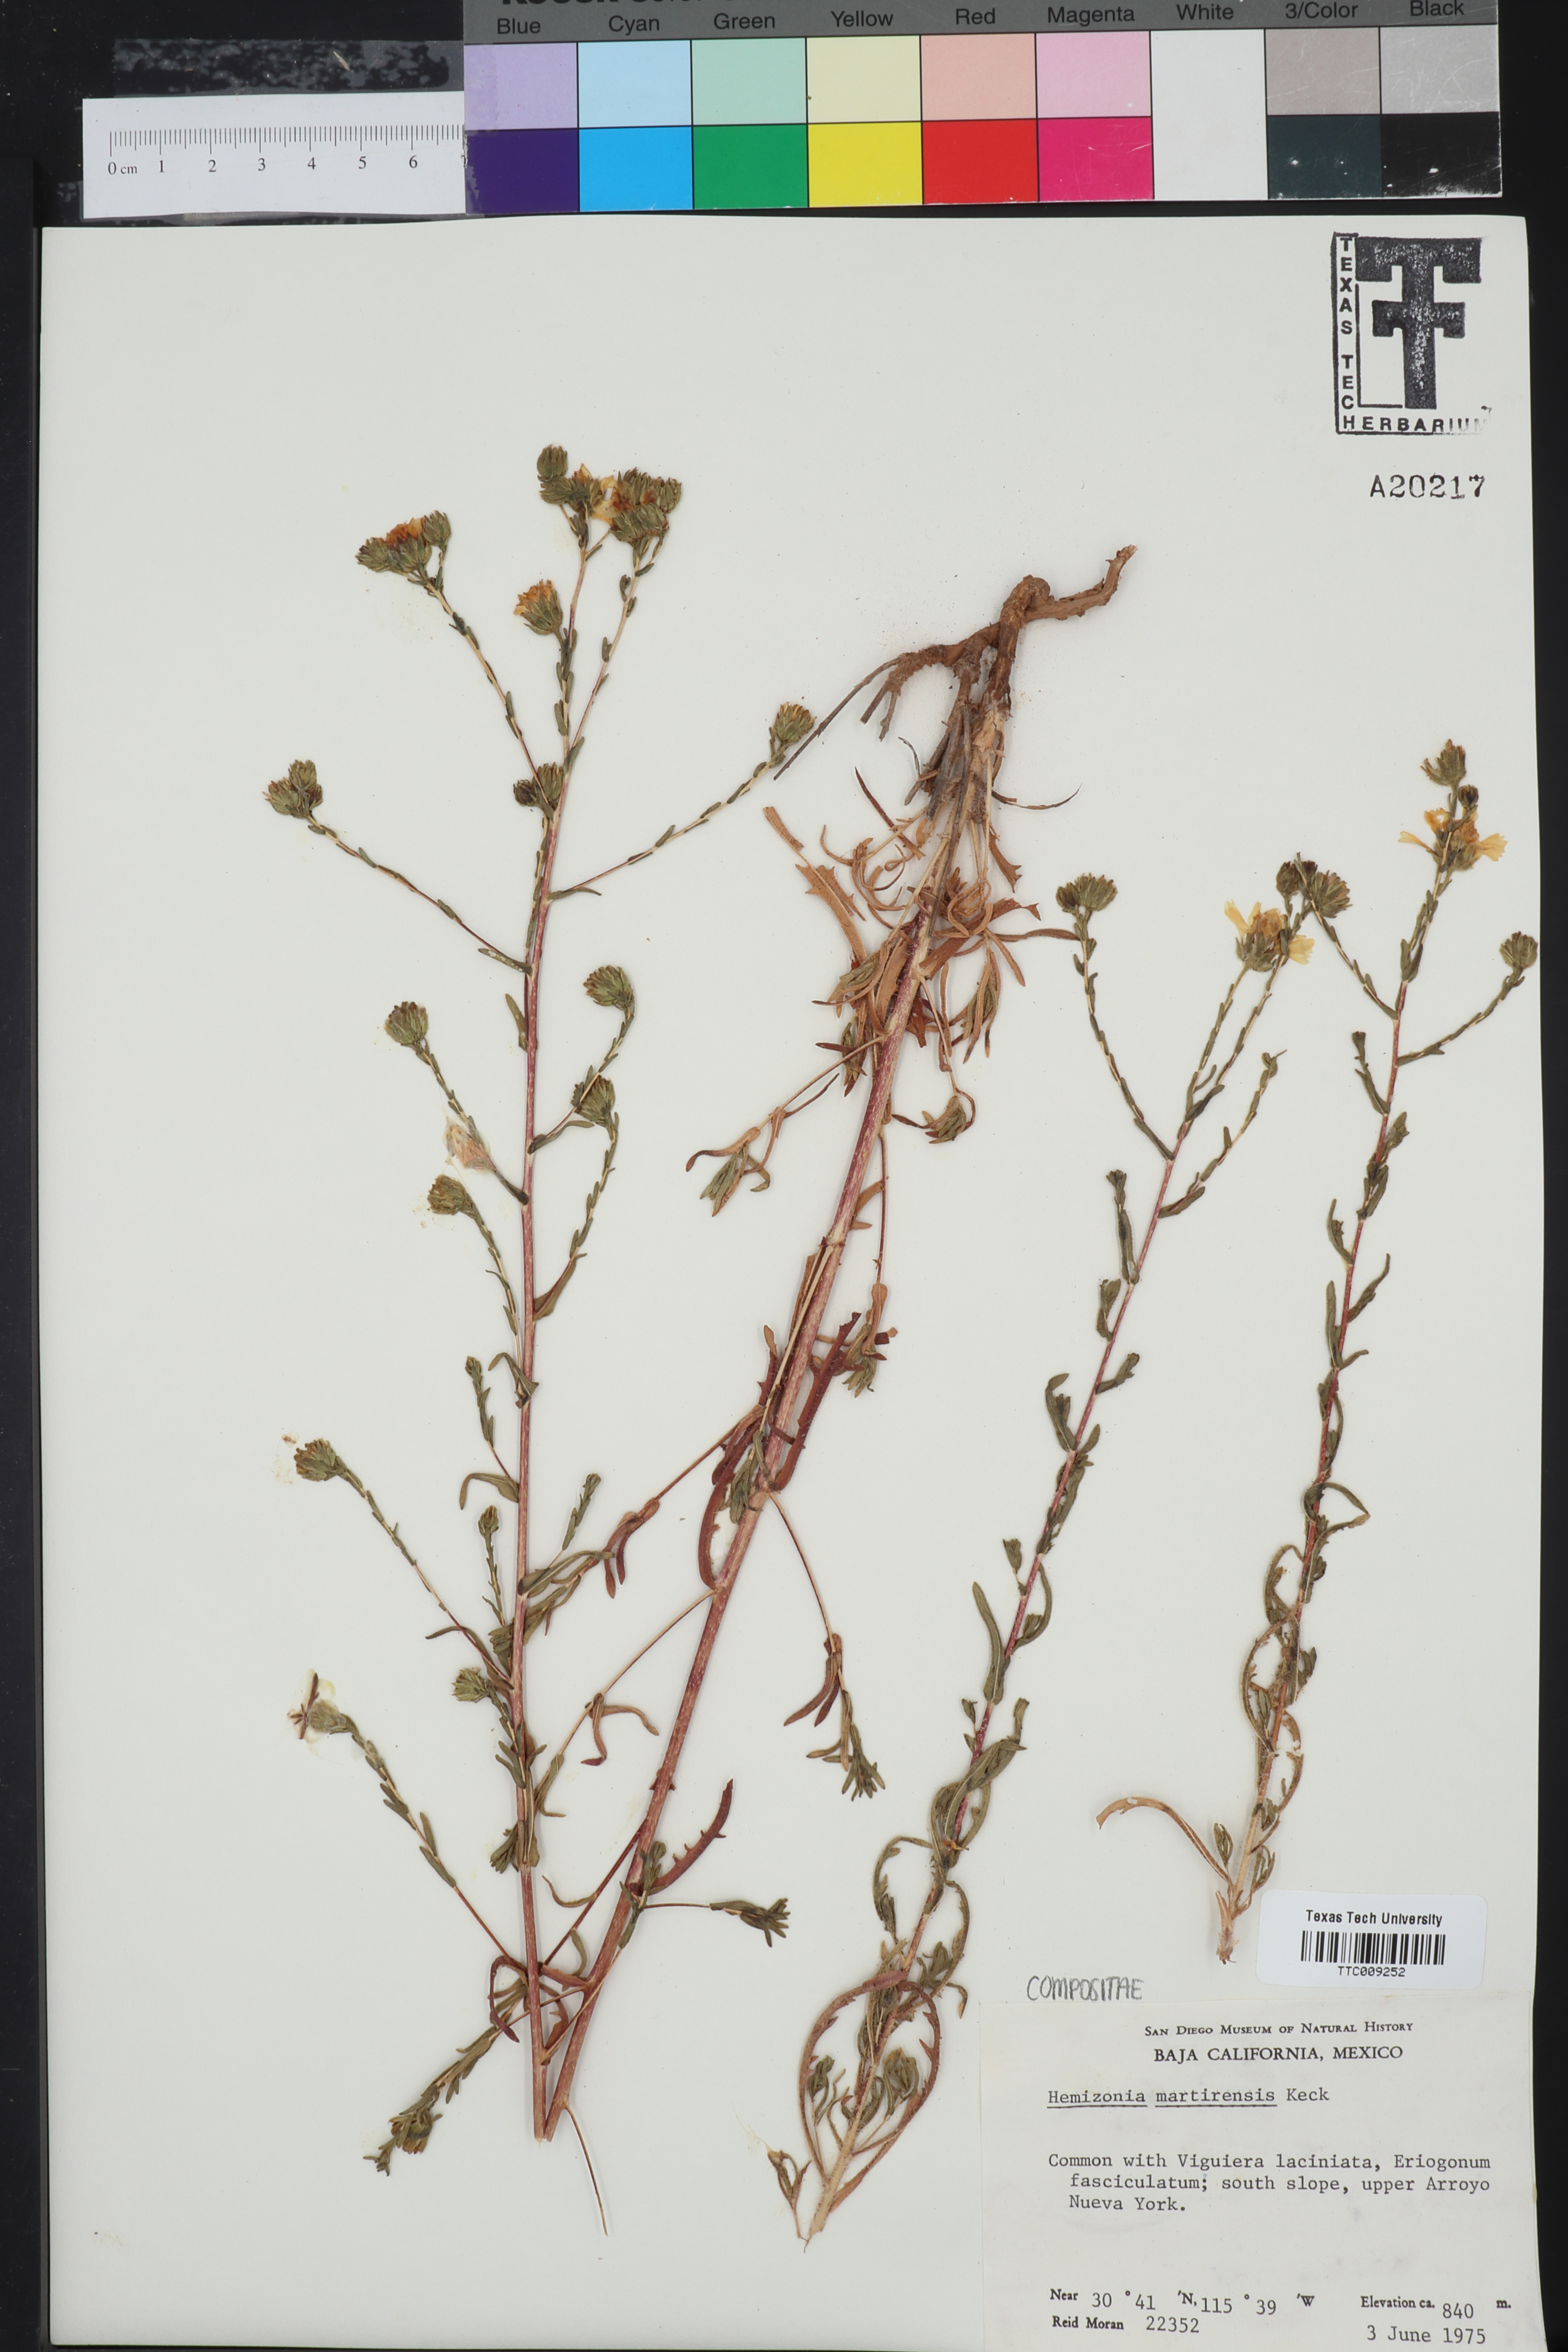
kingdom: Plantae
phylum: Tracheophyta
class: Magnoliopsida
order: Asterales
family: Asteraceae
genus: Deinandra
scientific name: Deinandra martirensis
